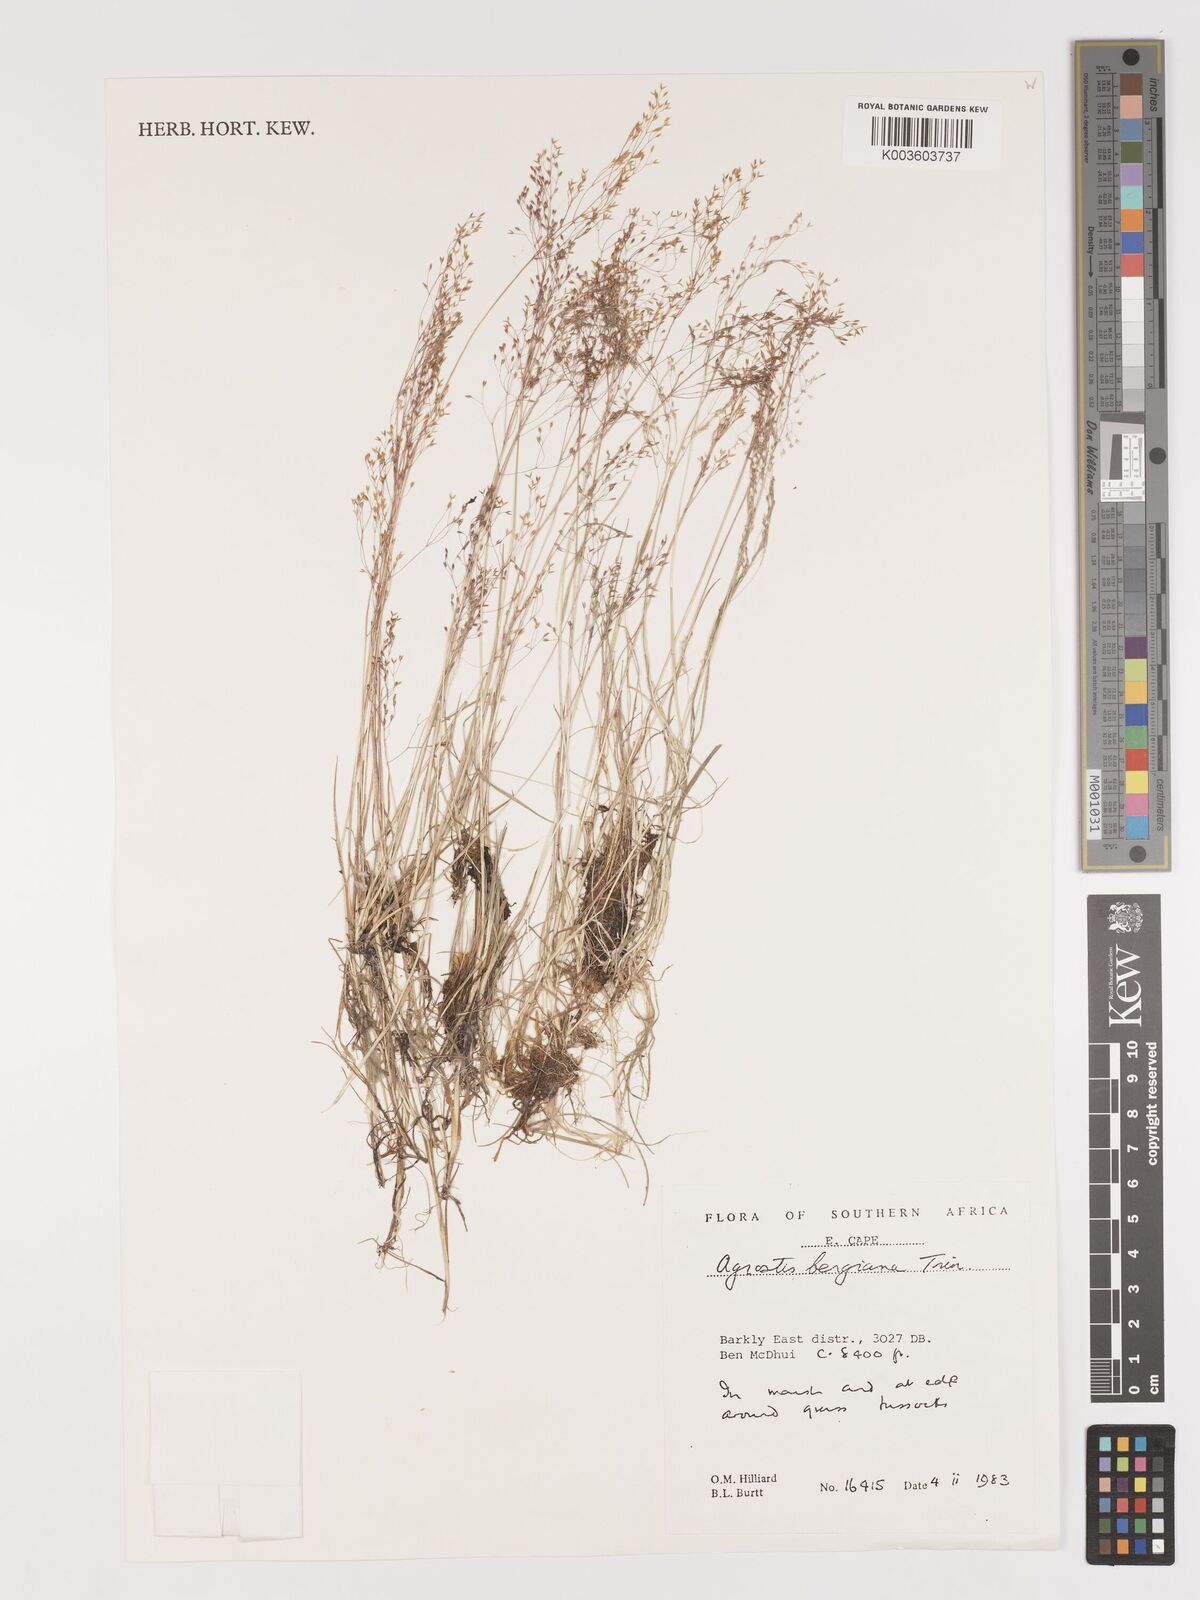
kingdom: Plantae
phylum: Tracheophyta
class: Liliopsida
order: Poales
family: Poaceae
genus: Agrostis
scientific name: Agrostis bergiana
